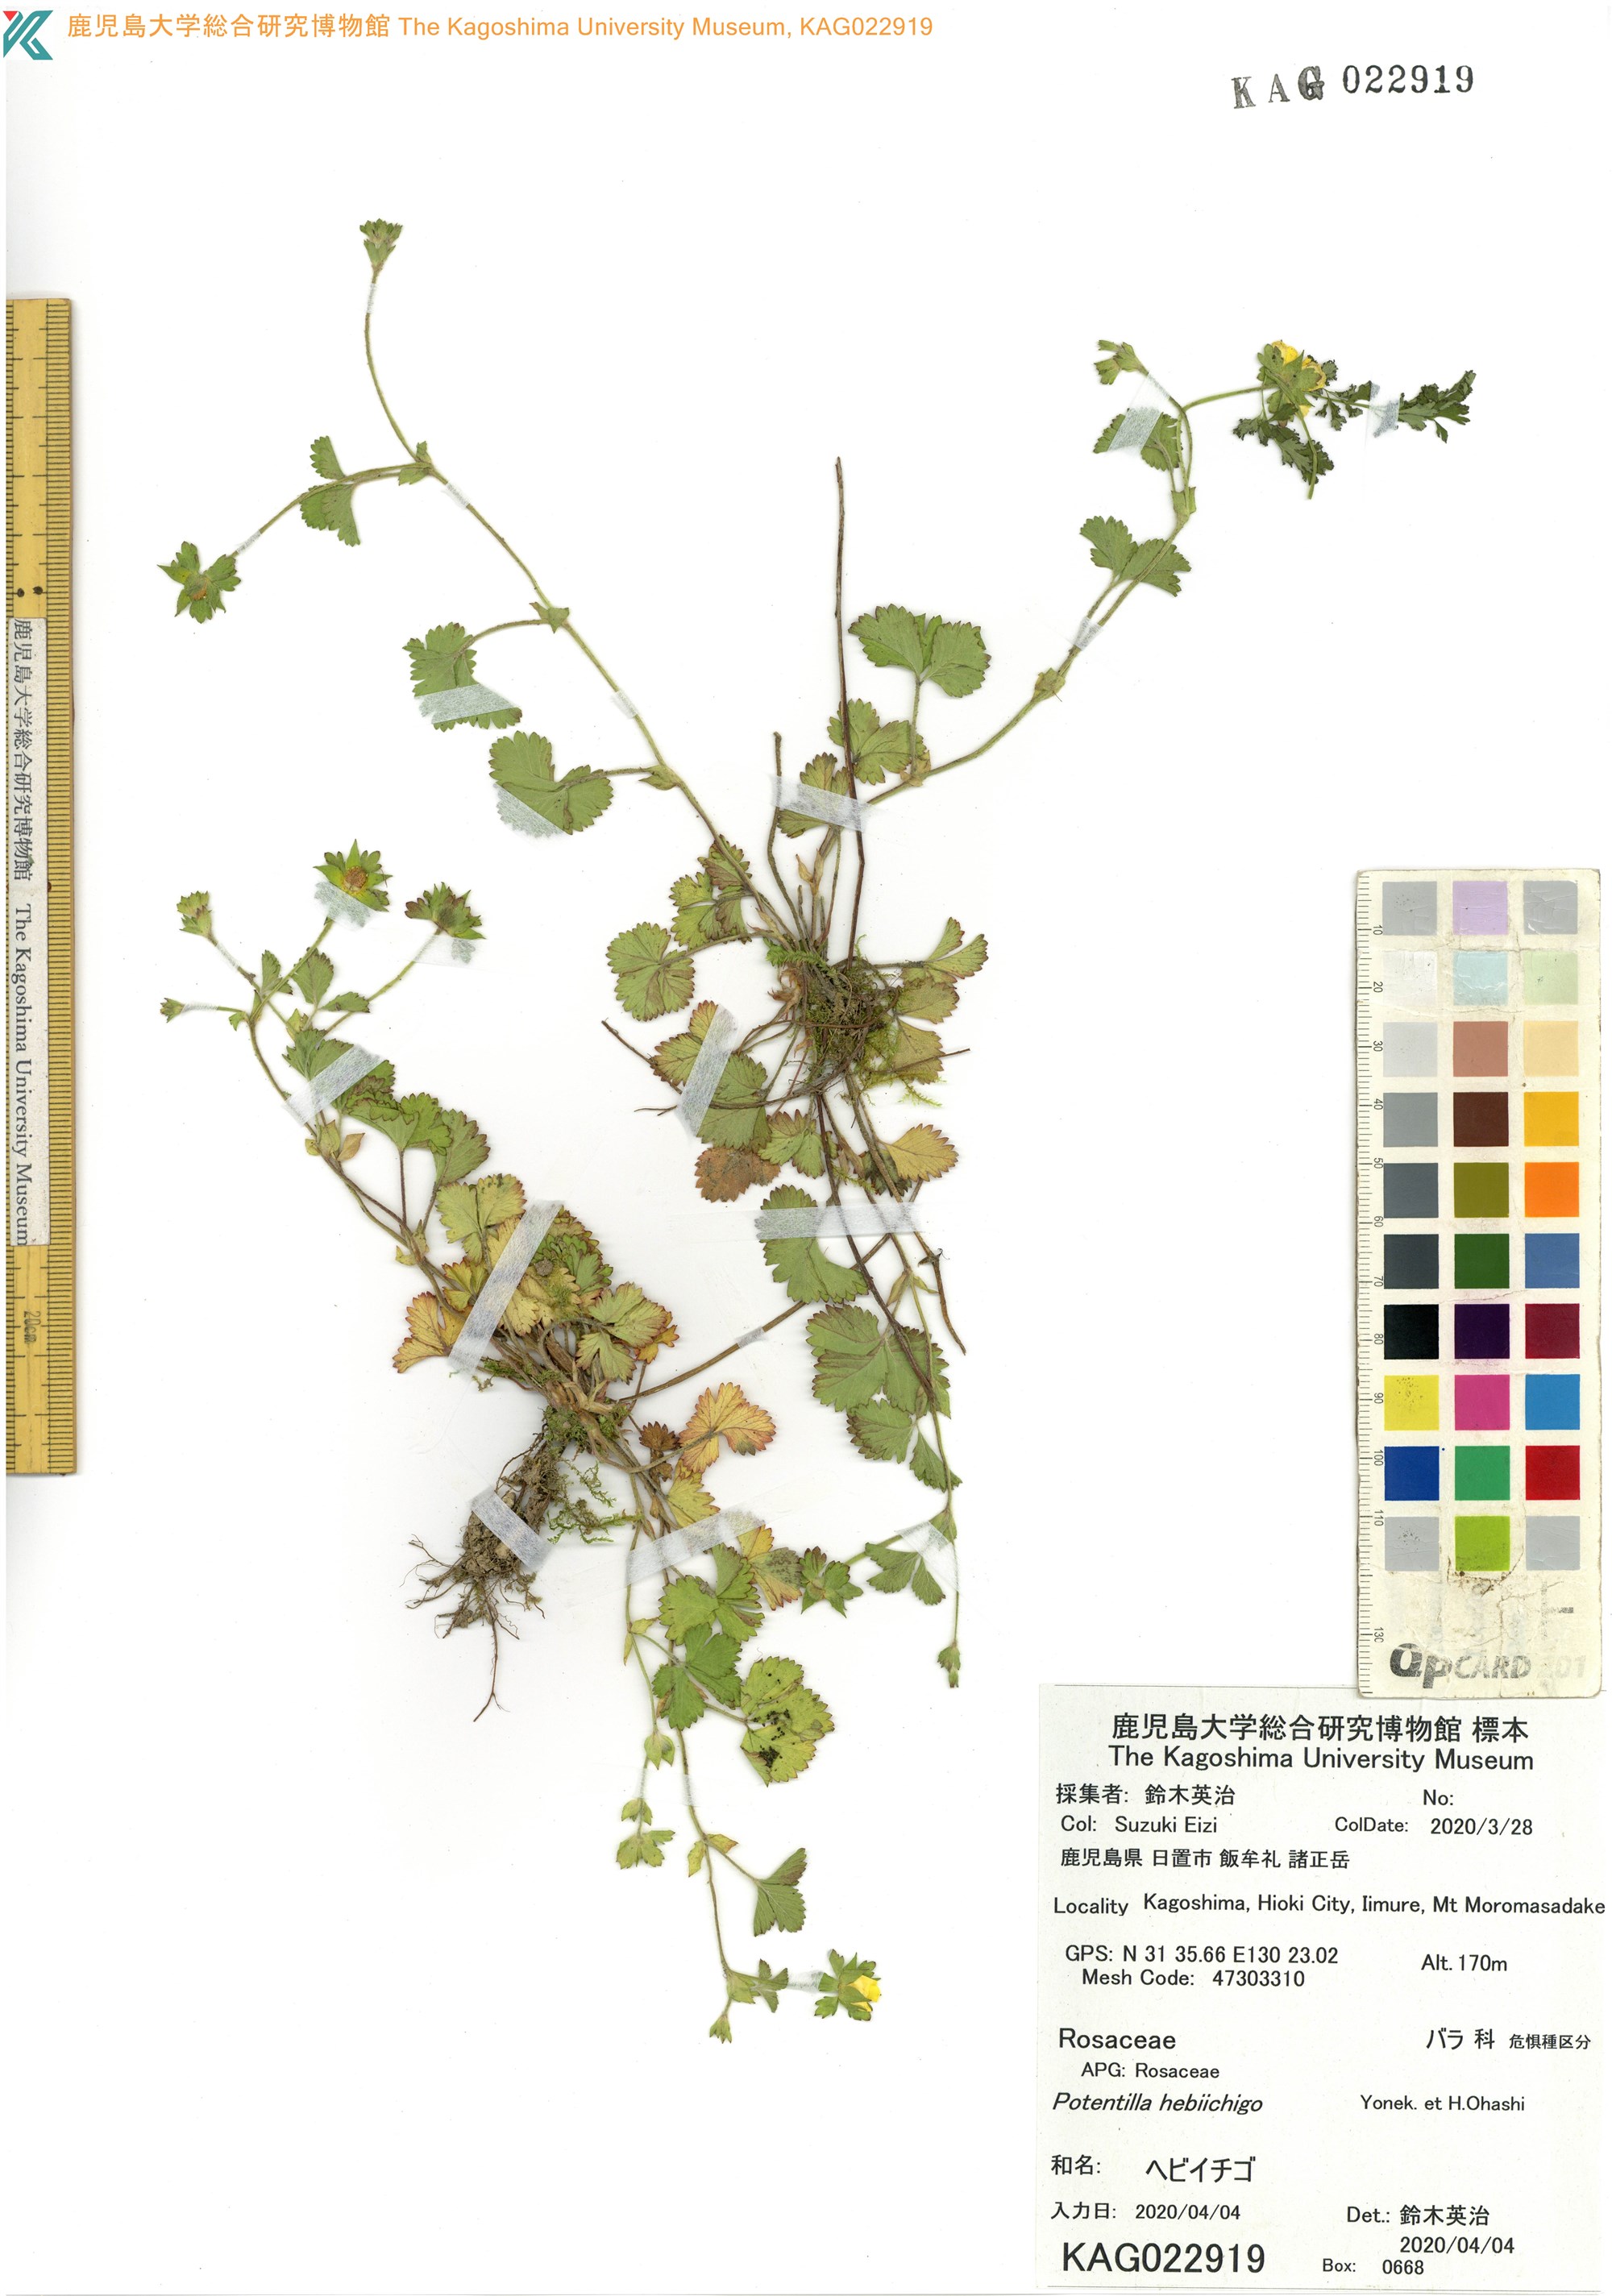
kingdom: Plantae
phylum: Tracheophyta
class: Magnoliopsida
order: Rosales
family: Rosaceae
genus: Potentilla
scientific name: Potentilla wallichiana
